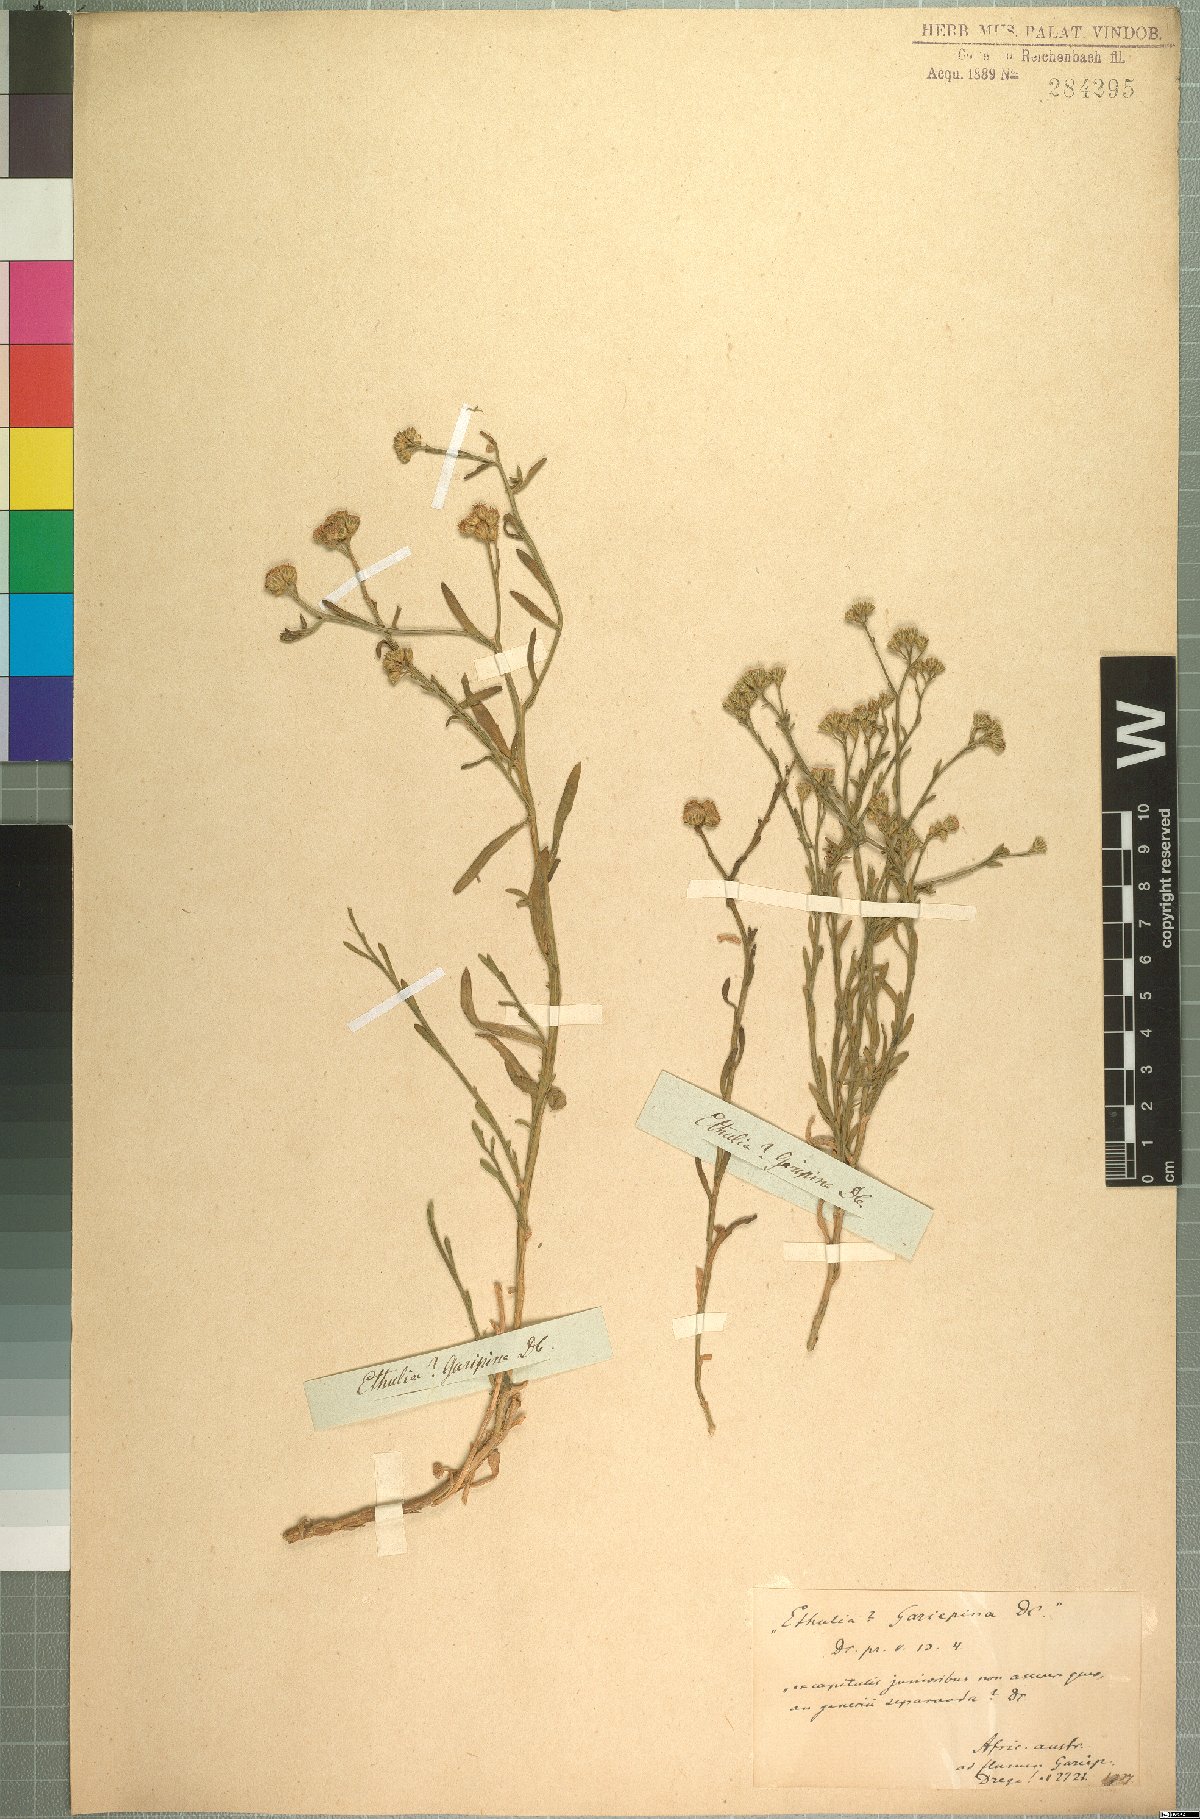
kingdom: Plantae
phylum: Tracheophyta
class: Magnoliopsida
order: Asterales
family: Asteraceae
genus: Litogyne
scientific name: Litogyne gariepina
